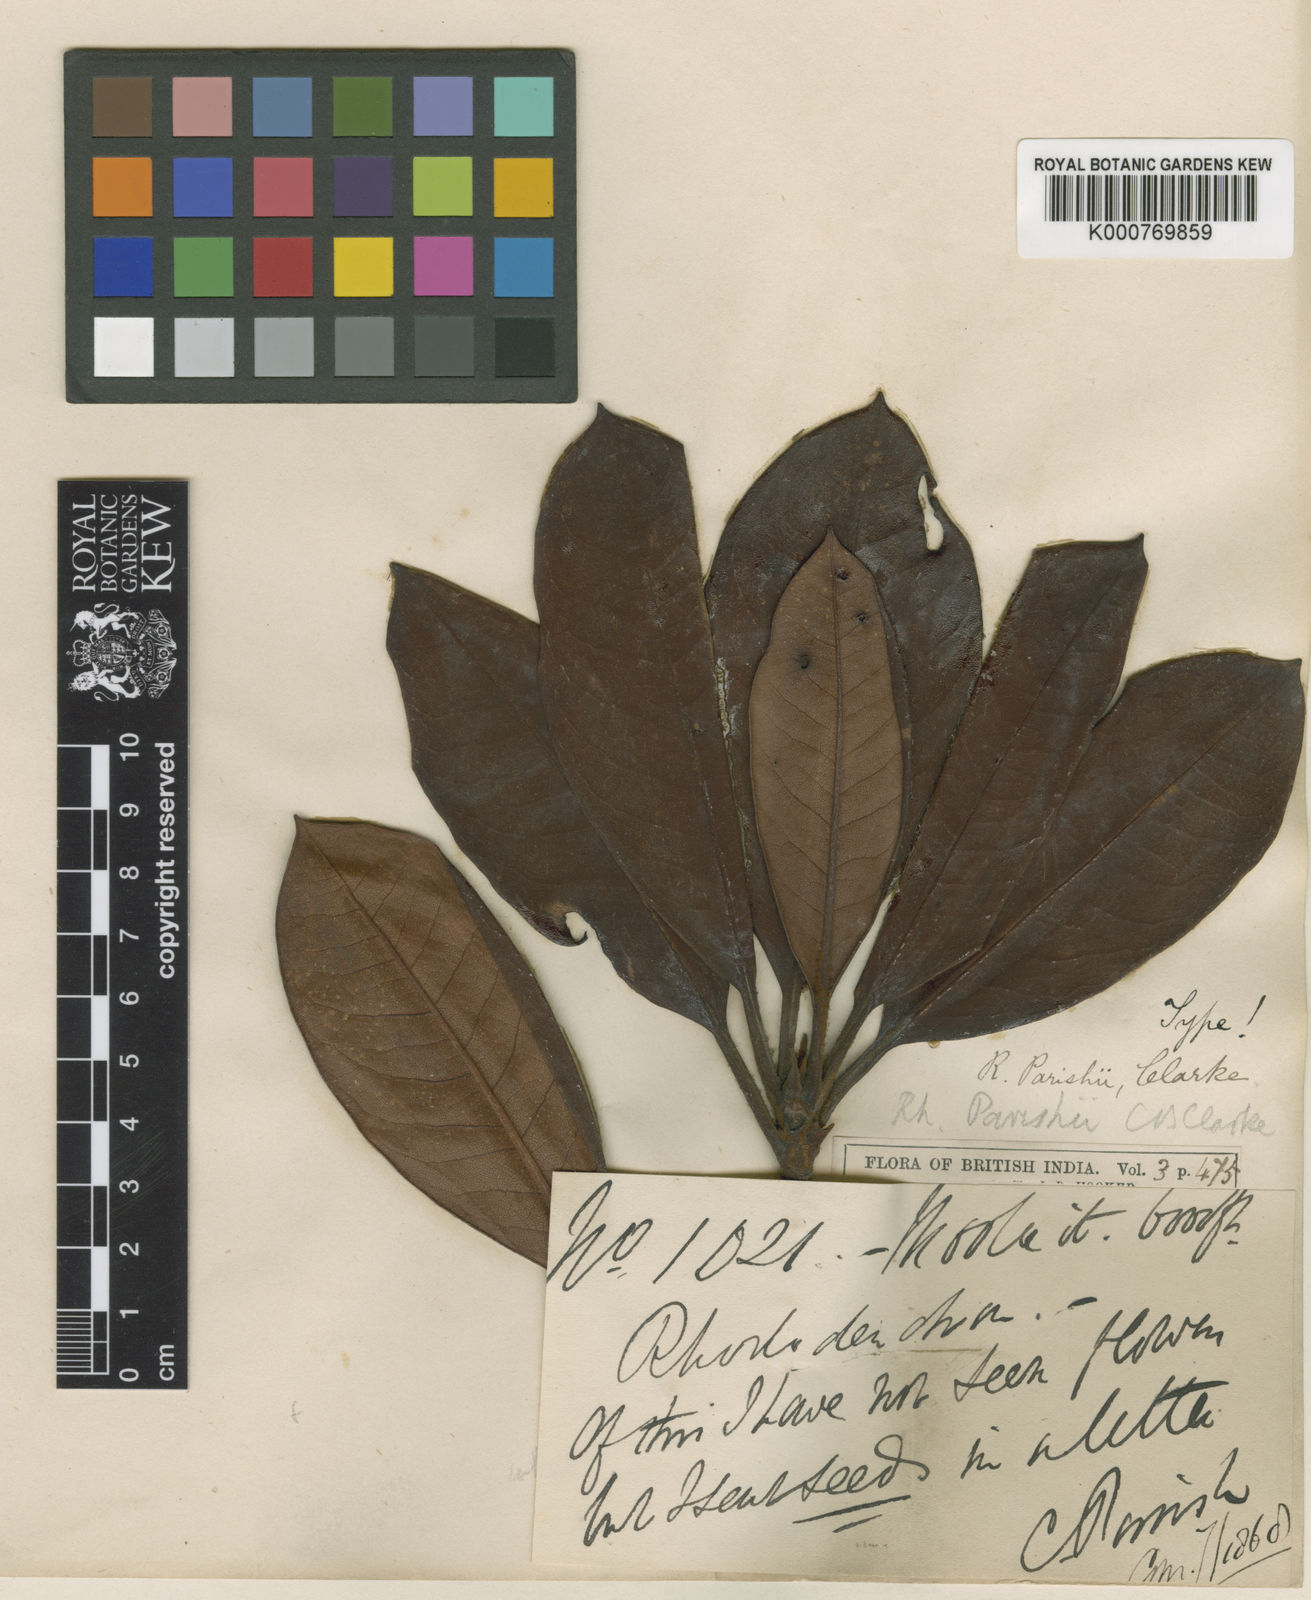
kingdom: Plantae
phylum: Tracheophyta
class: Magnoliopsida
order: Ericales
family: Ericaceae
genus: Rhododendron
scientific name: Rhododendron
